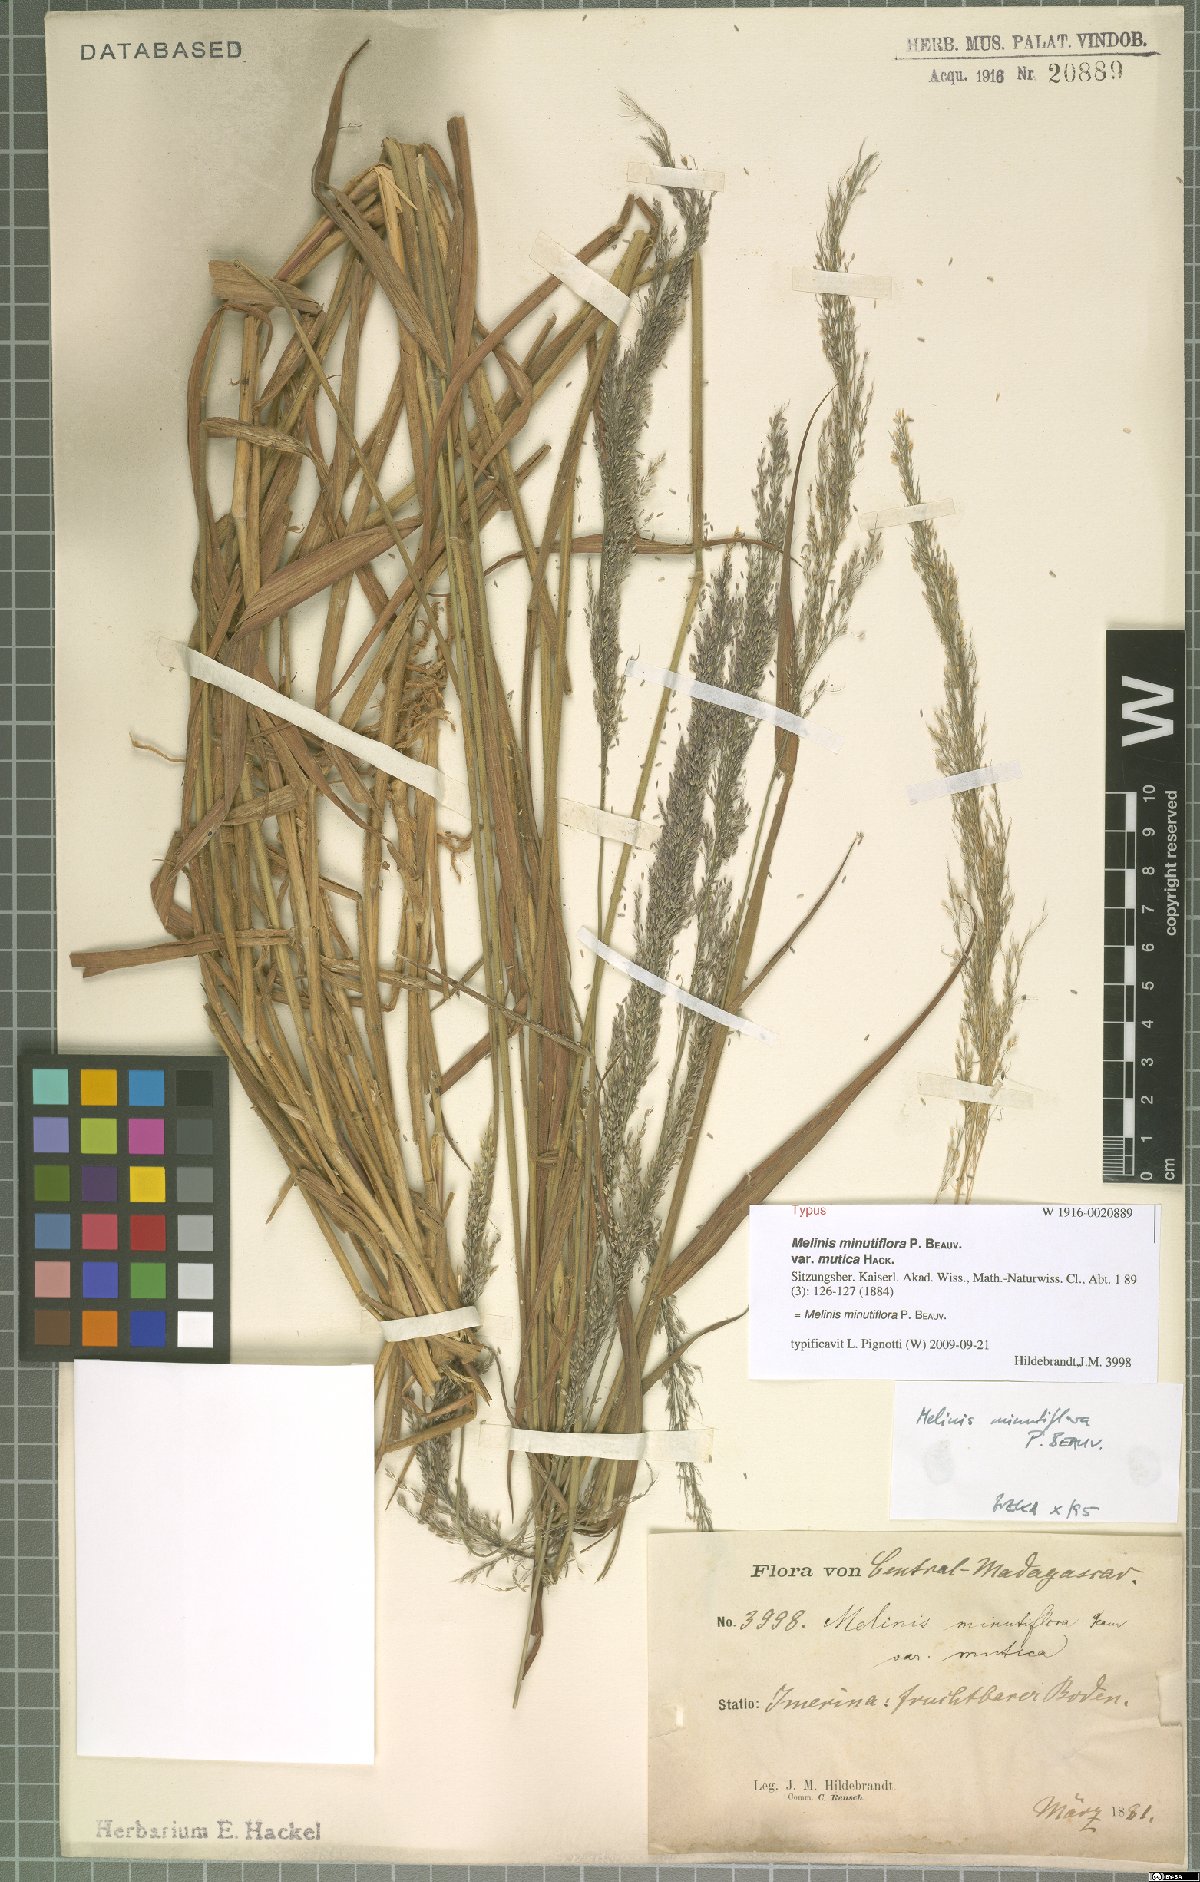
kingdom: Plantae
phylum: Tracheophyta
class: Liliopsida
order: Poales
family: Poaceae
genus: Melinis
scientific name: Melinis minutiflora
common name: Molassesgrass
